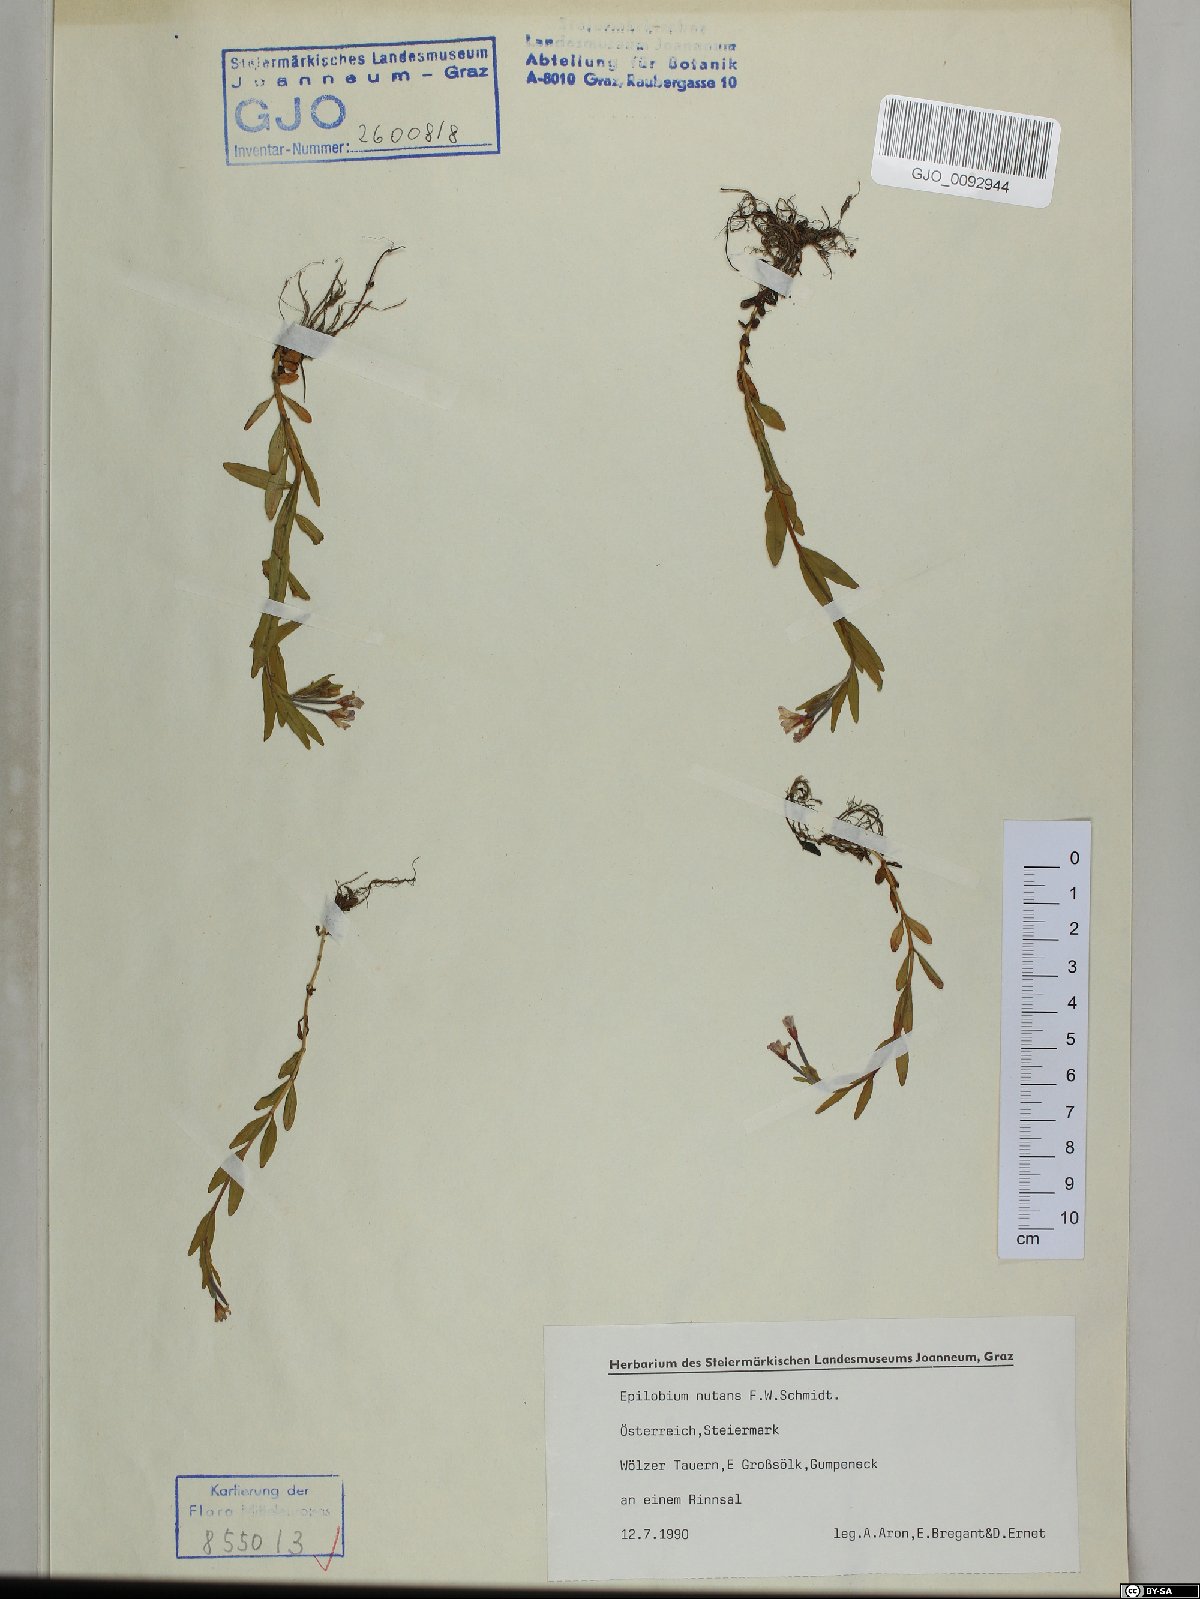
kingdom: Plantae
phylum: Tracheophyta
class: Magnoliopsida
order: Myrtales
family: Onagraceae
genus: Epilobium
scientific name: Epilobium nutans
